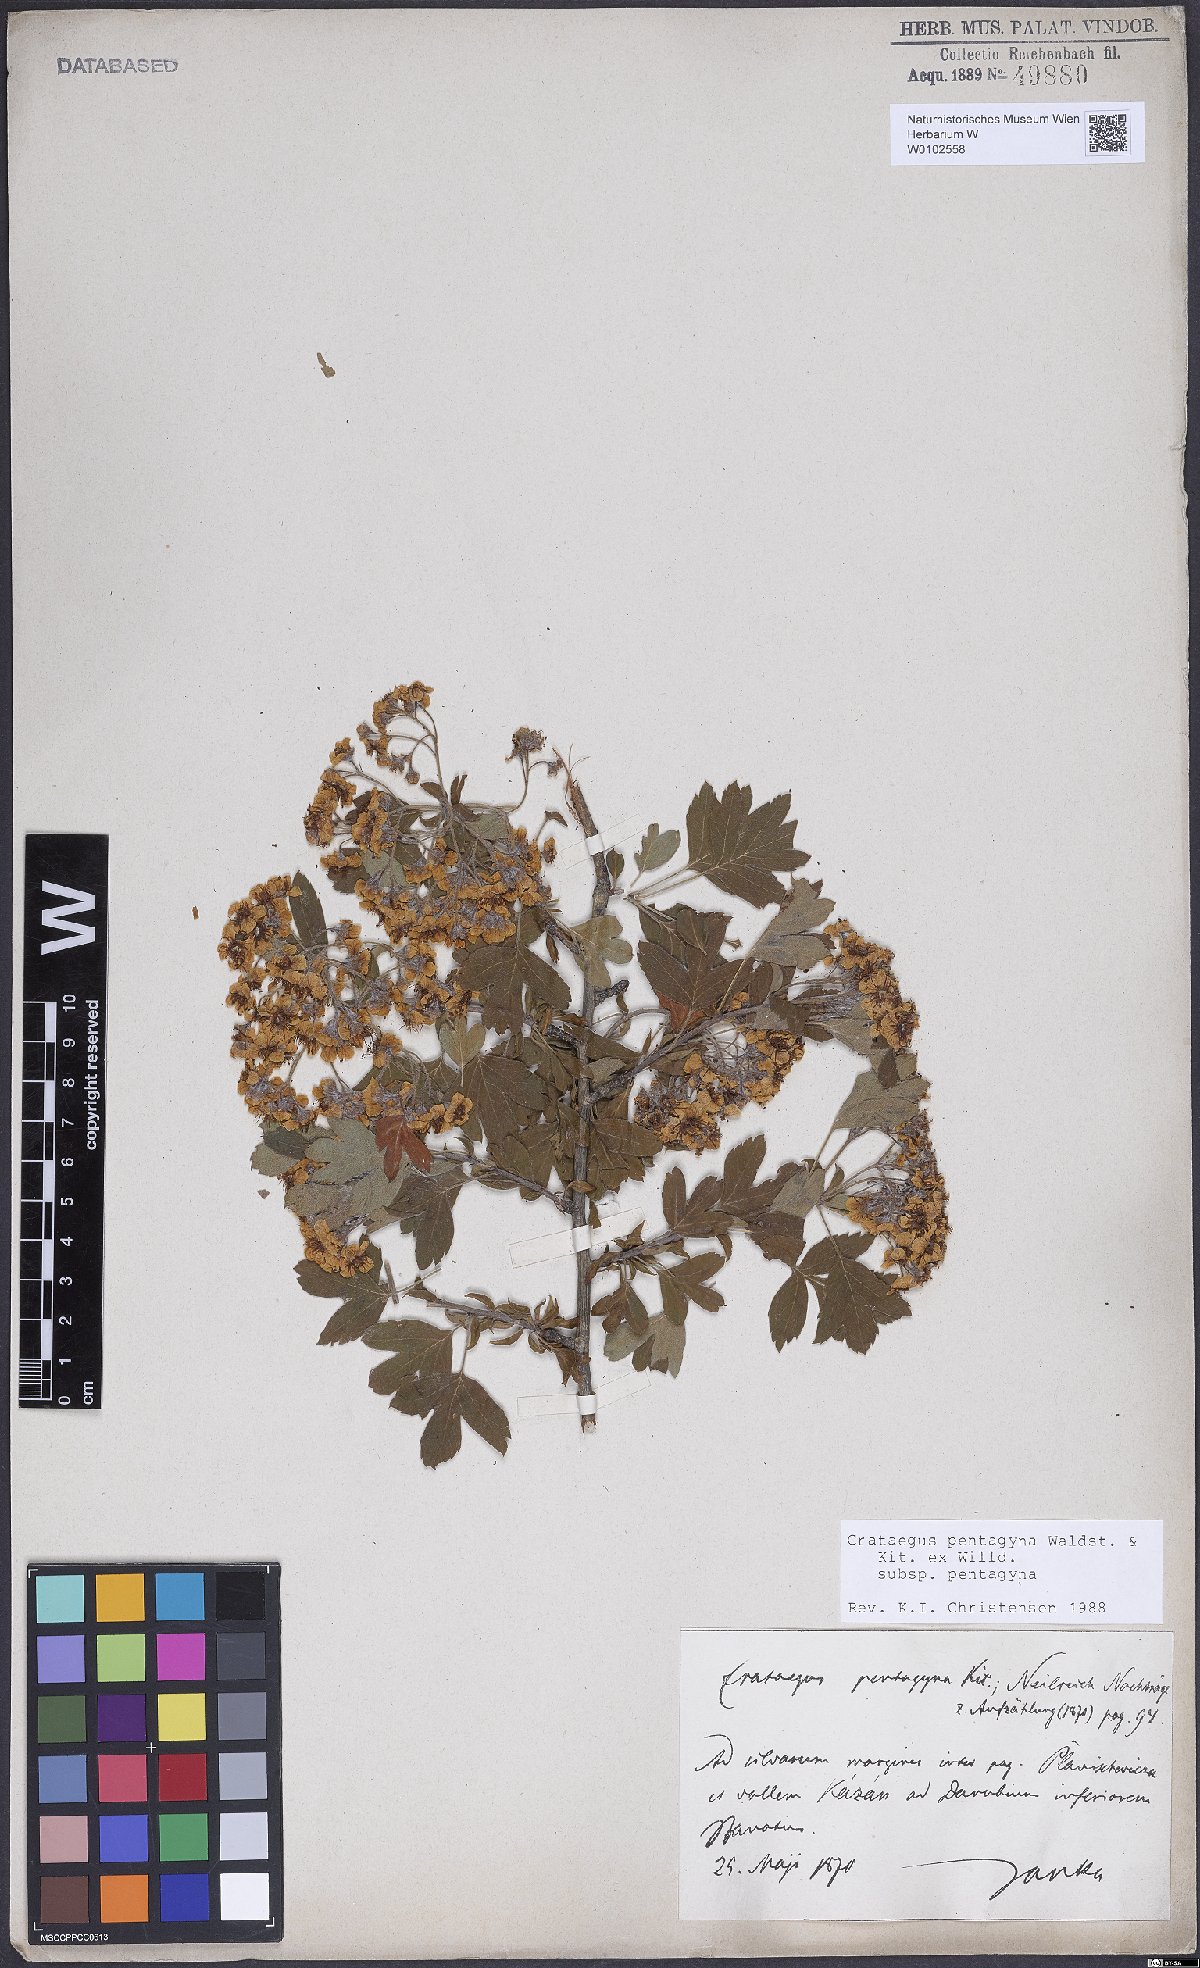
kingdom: Plantae
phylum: Tracheophyta
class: Magnoliopsida
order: Rosales
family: Rosaceae
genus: Crataegus
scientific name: Crataegus pentagyna
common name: Small-flowered black hawthorn
